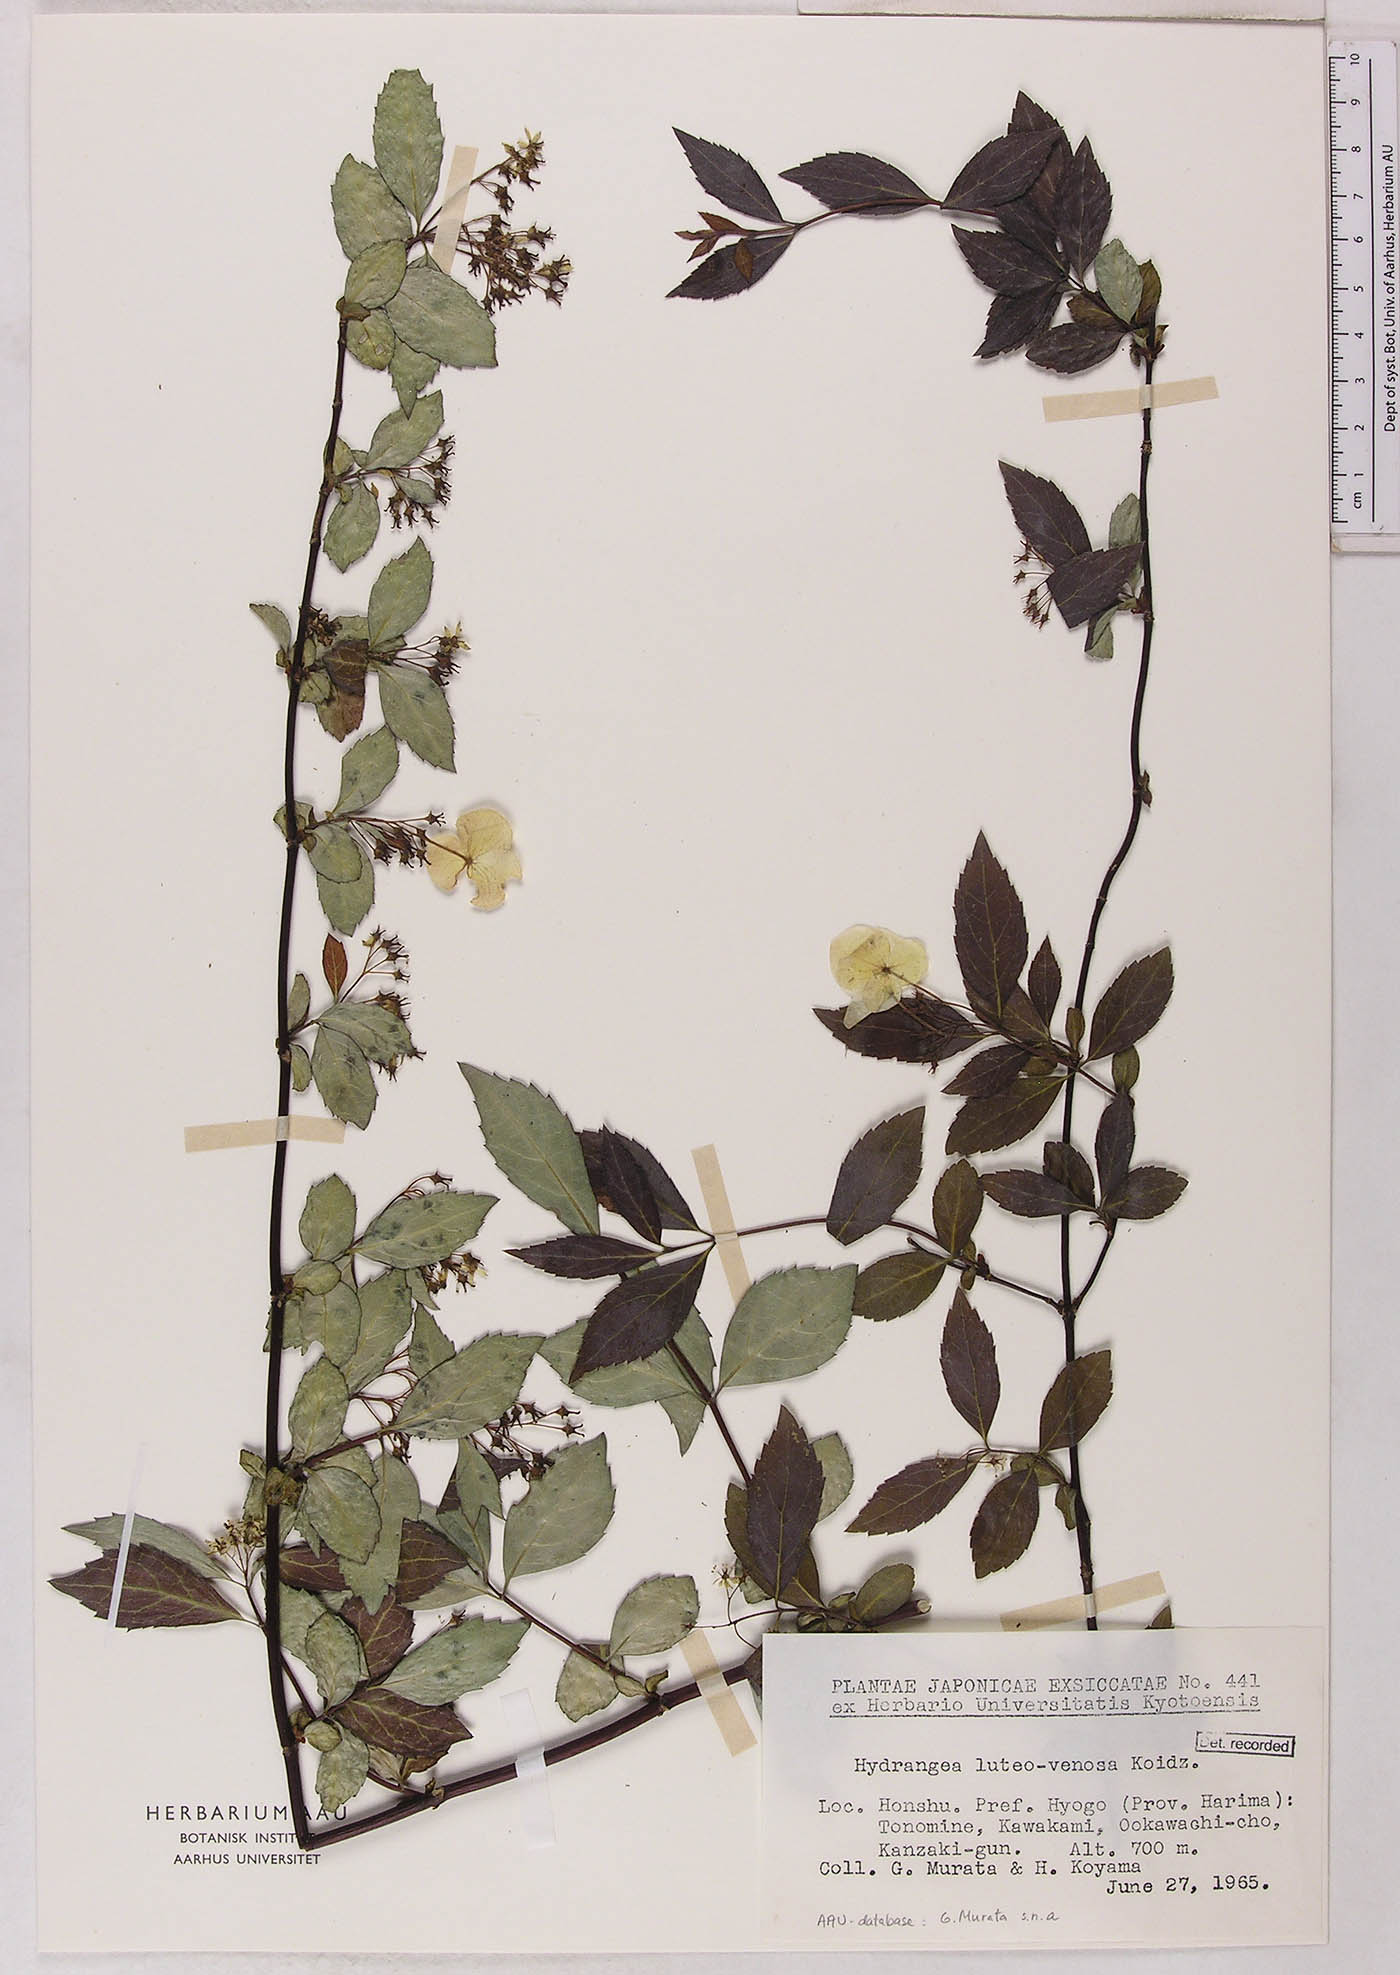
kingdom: Plantae
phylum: Tracheophyta
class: Magnoliopsida
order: Cornales
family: Hydrangeaceae
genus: Hydrangea
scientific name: Hydrangea luteovenosa
